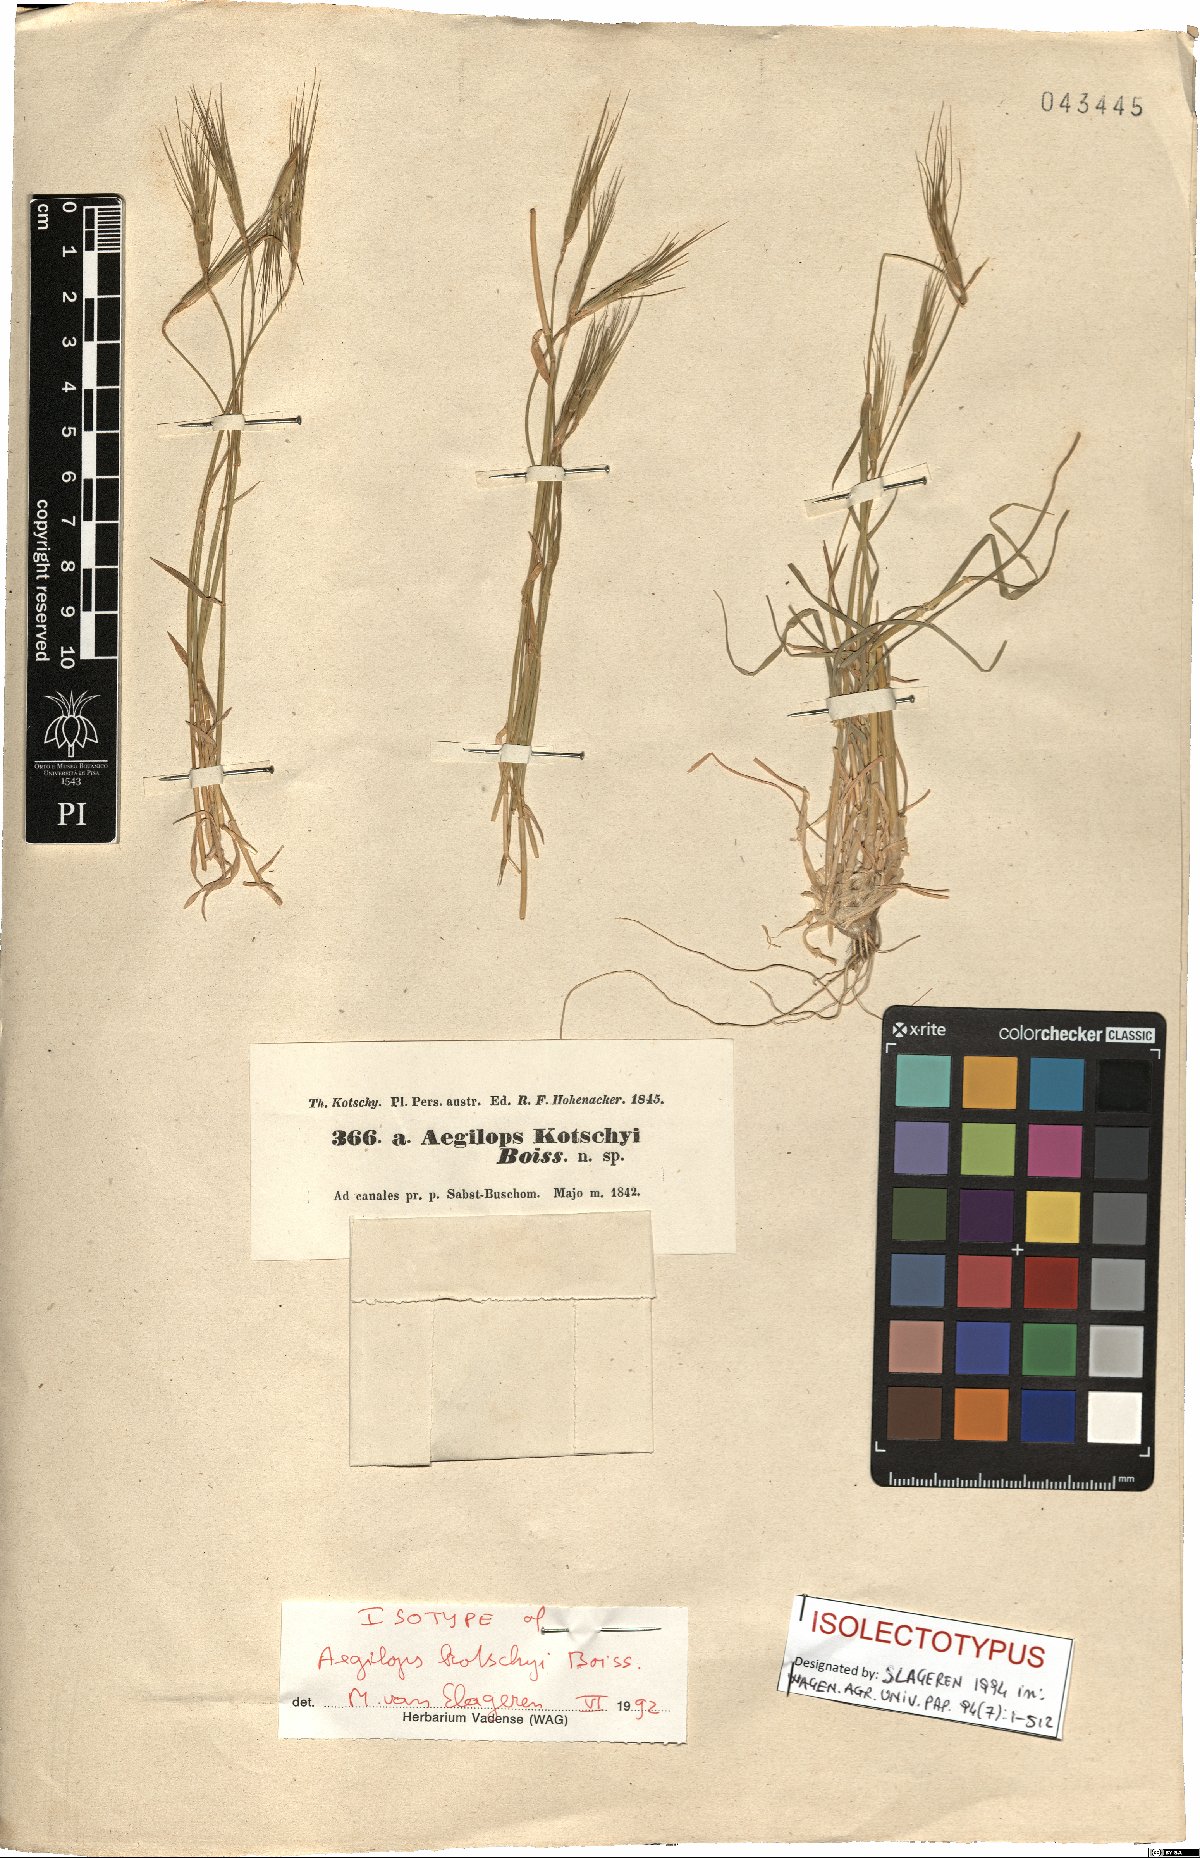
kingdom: Plantae
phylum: Tracheophyta
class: Liliopsida
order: Poales
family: Poaceae
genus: Aegilops
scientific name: Aegilops kotschyi
